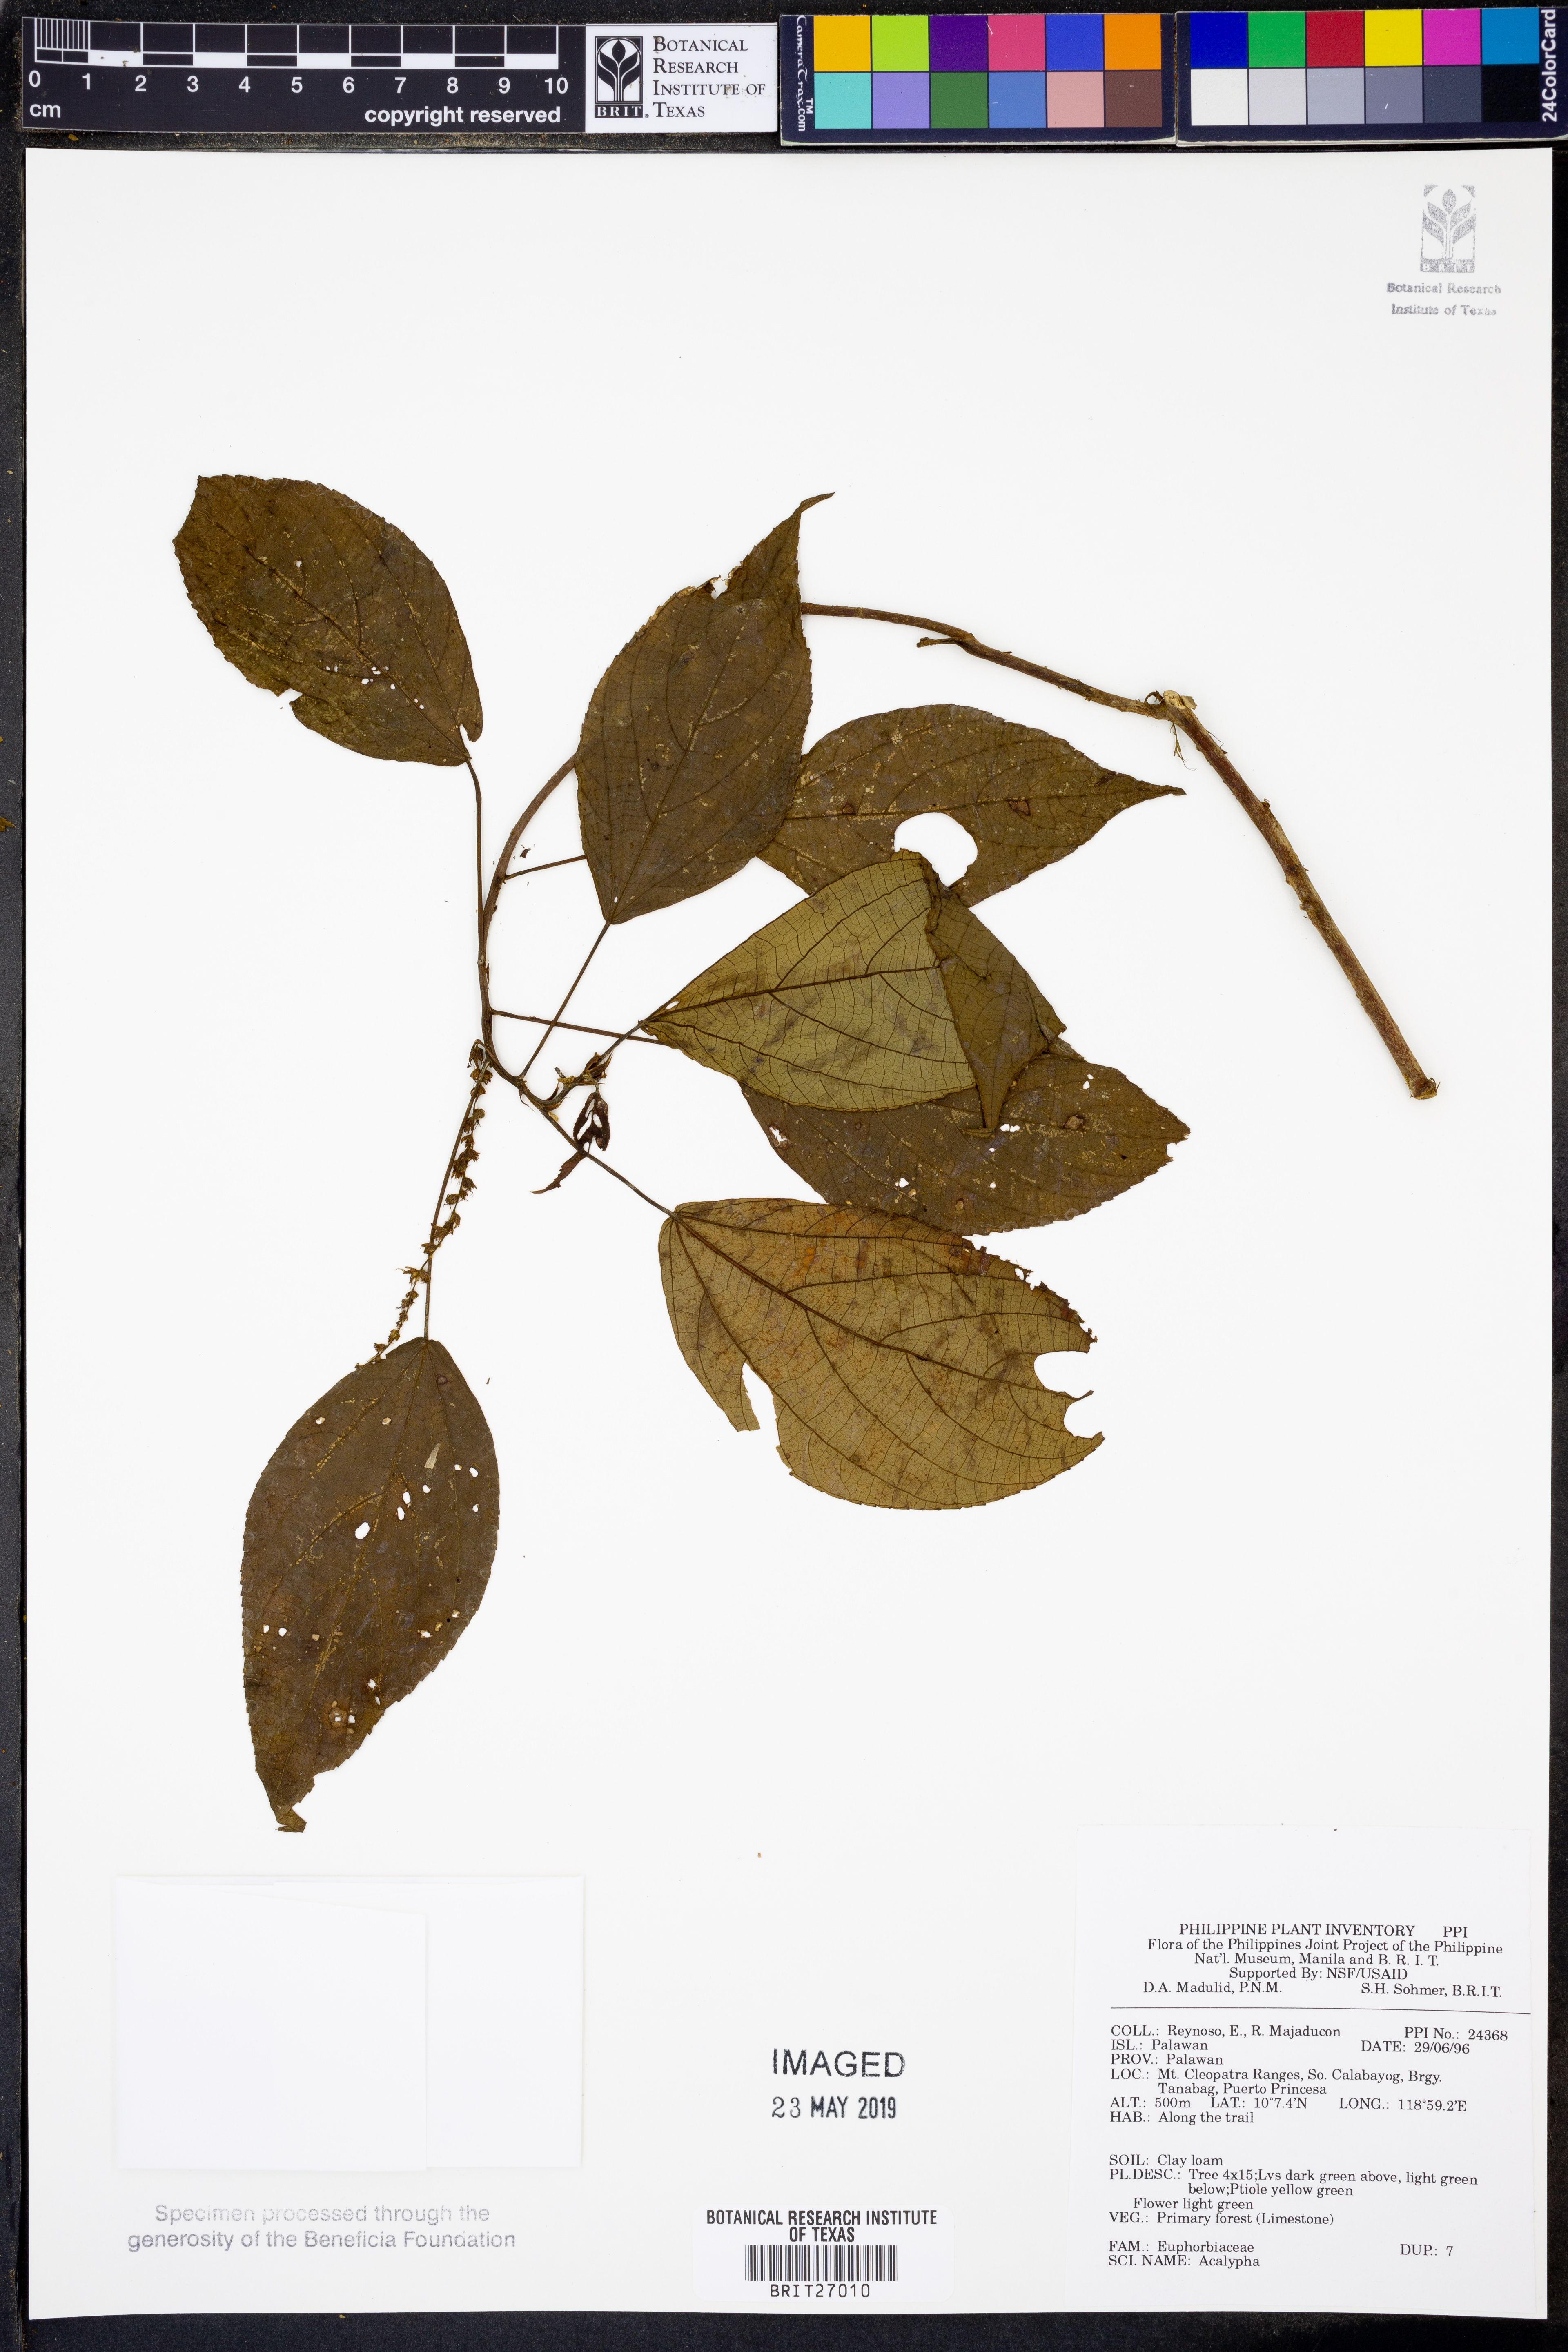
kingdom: Plantae
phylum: Tracheophyta
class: Magnoliopsida
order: Malpighiales
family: Euphorbiaceae
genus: Acalypha
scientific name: Acalypha
